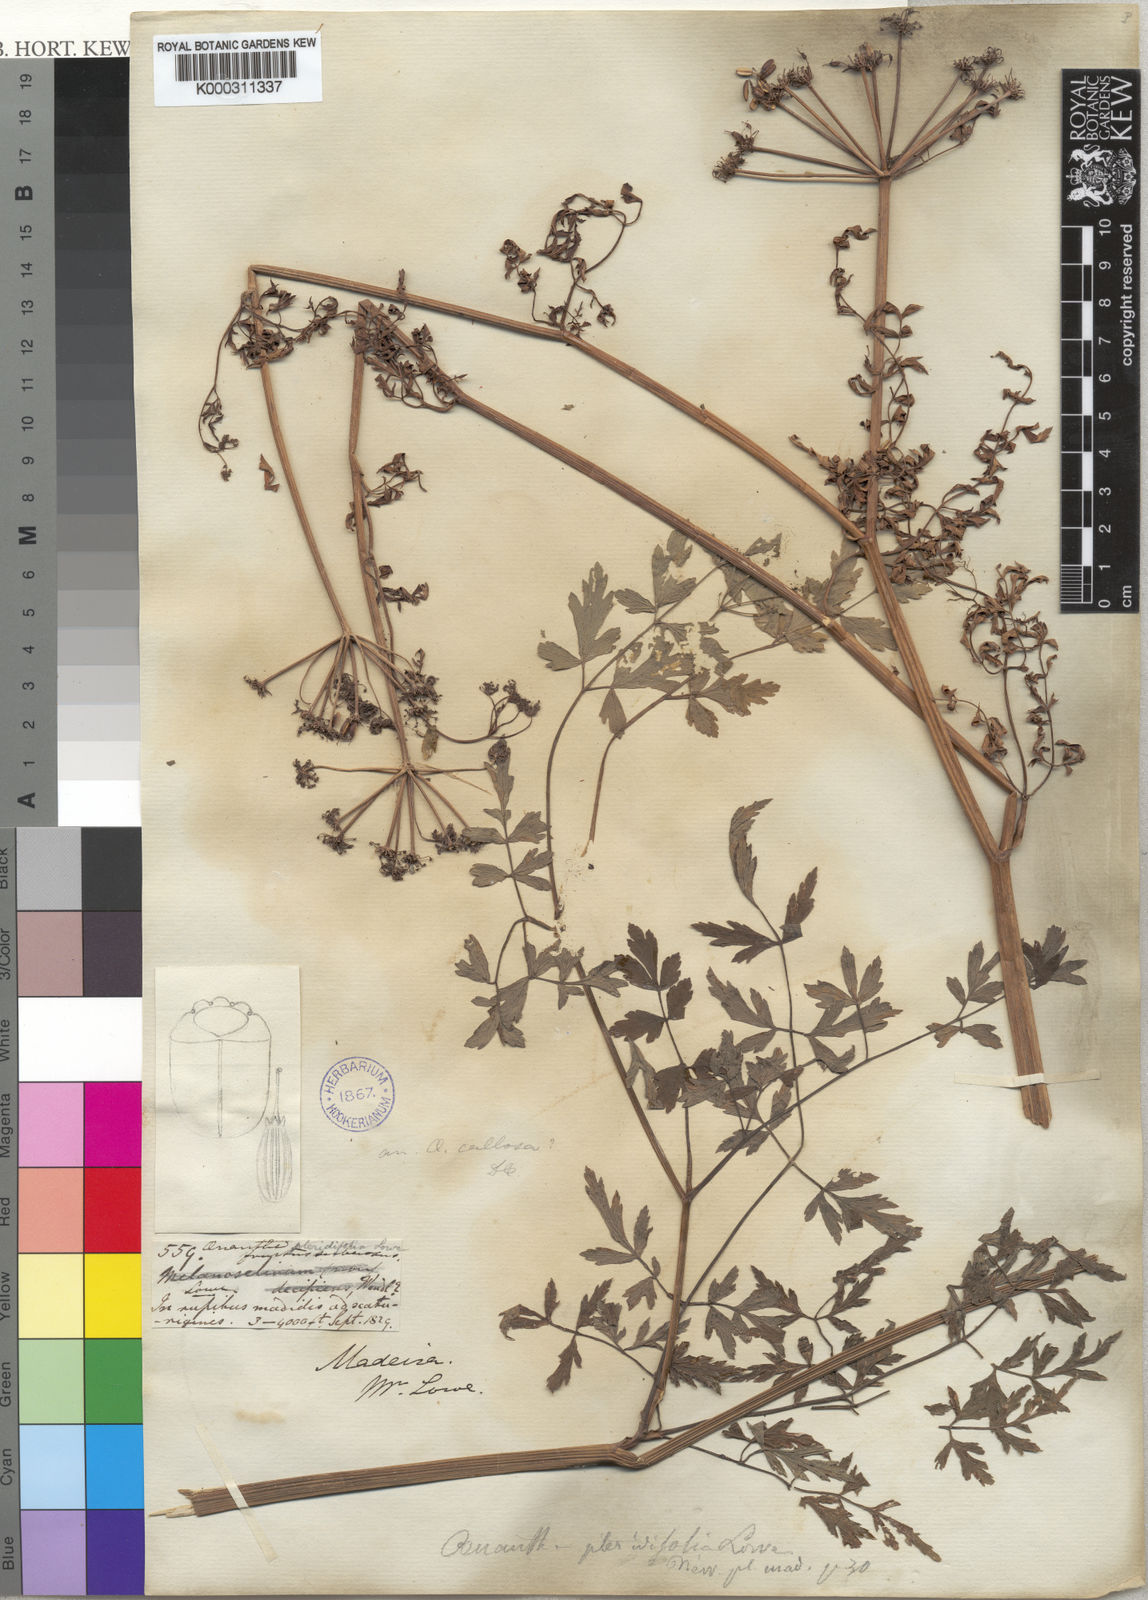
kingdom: Plantae
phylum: Tracheophyta
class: Magnoliopsida
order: Apiales
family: Apiaceae
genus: Oenanthe
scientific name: Oenanthe pteridifolia
